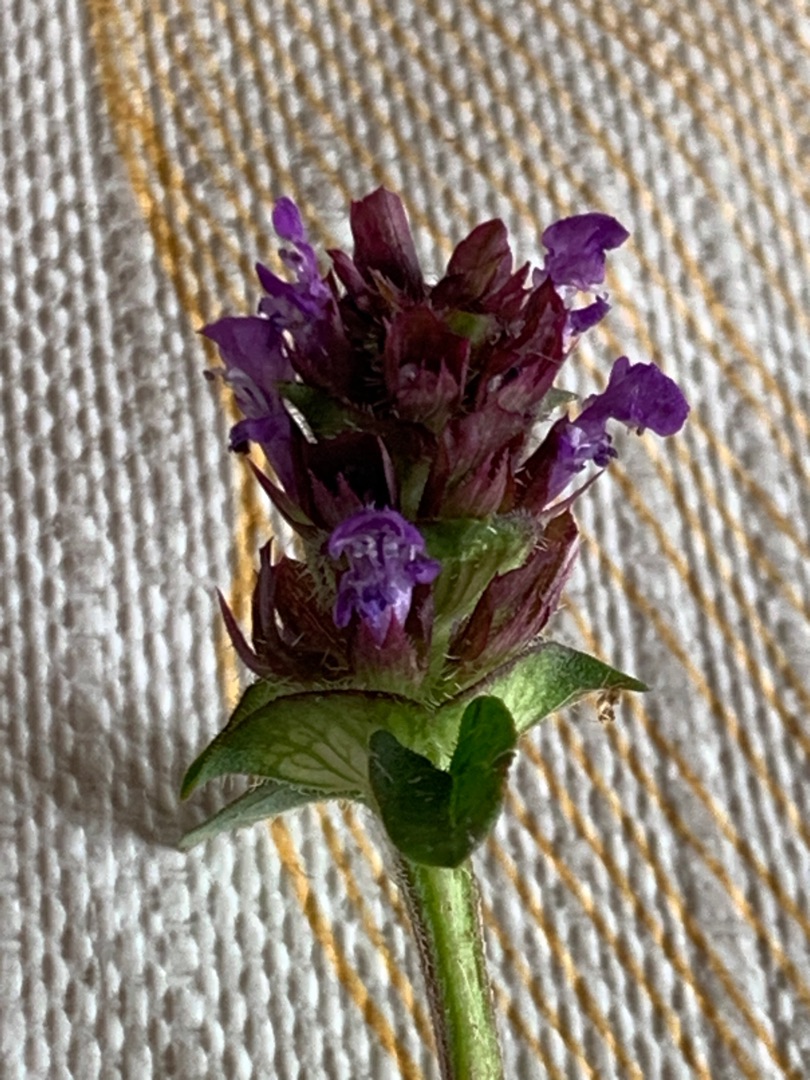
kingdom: Plantae
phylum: Tracheophyta
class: Magnoliopsida
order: Lamiales
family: Lamiaceae
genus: Prunella
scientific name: Prunella vulgaris
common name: Almindelig brunelle
